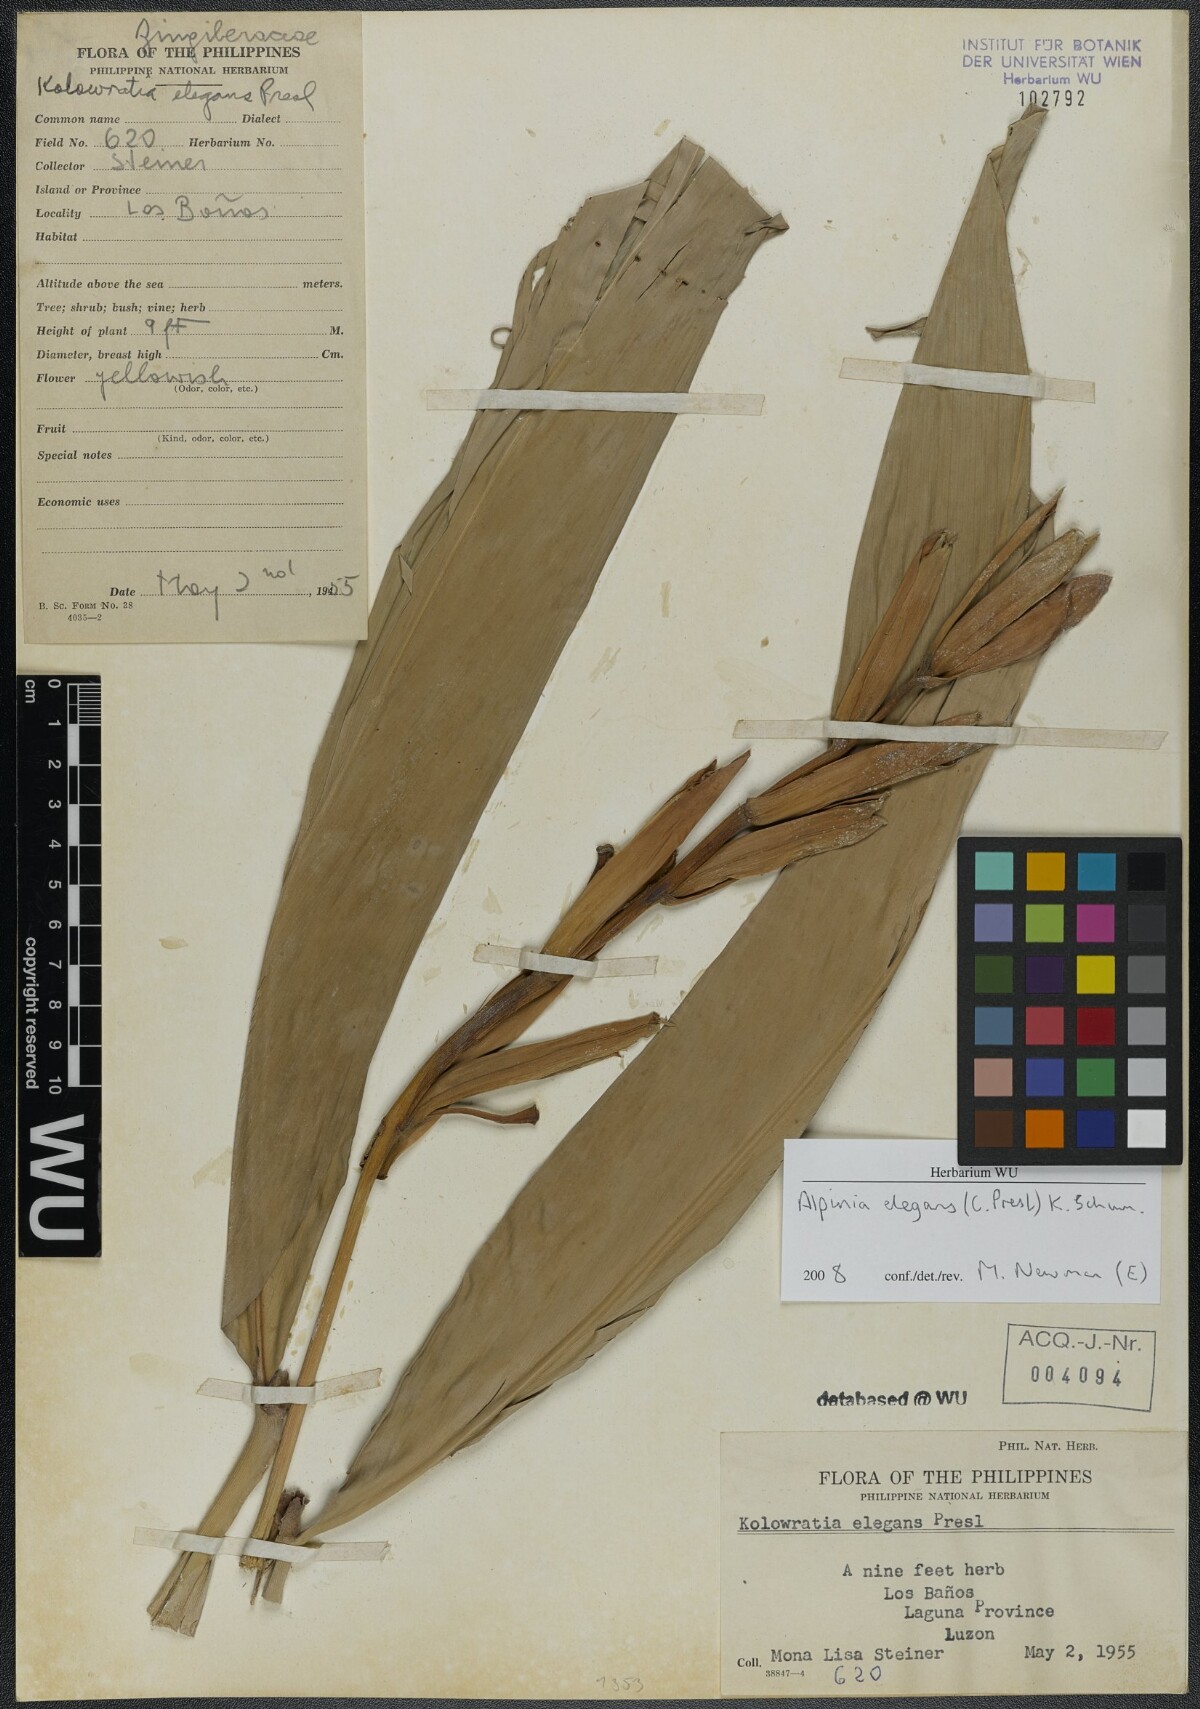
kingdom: Plantae
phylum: Tracheophyta
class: Liliopsida
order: Zingiberales
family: Zingiberaceae
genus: Alpinia
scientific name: Alpinia elegans
